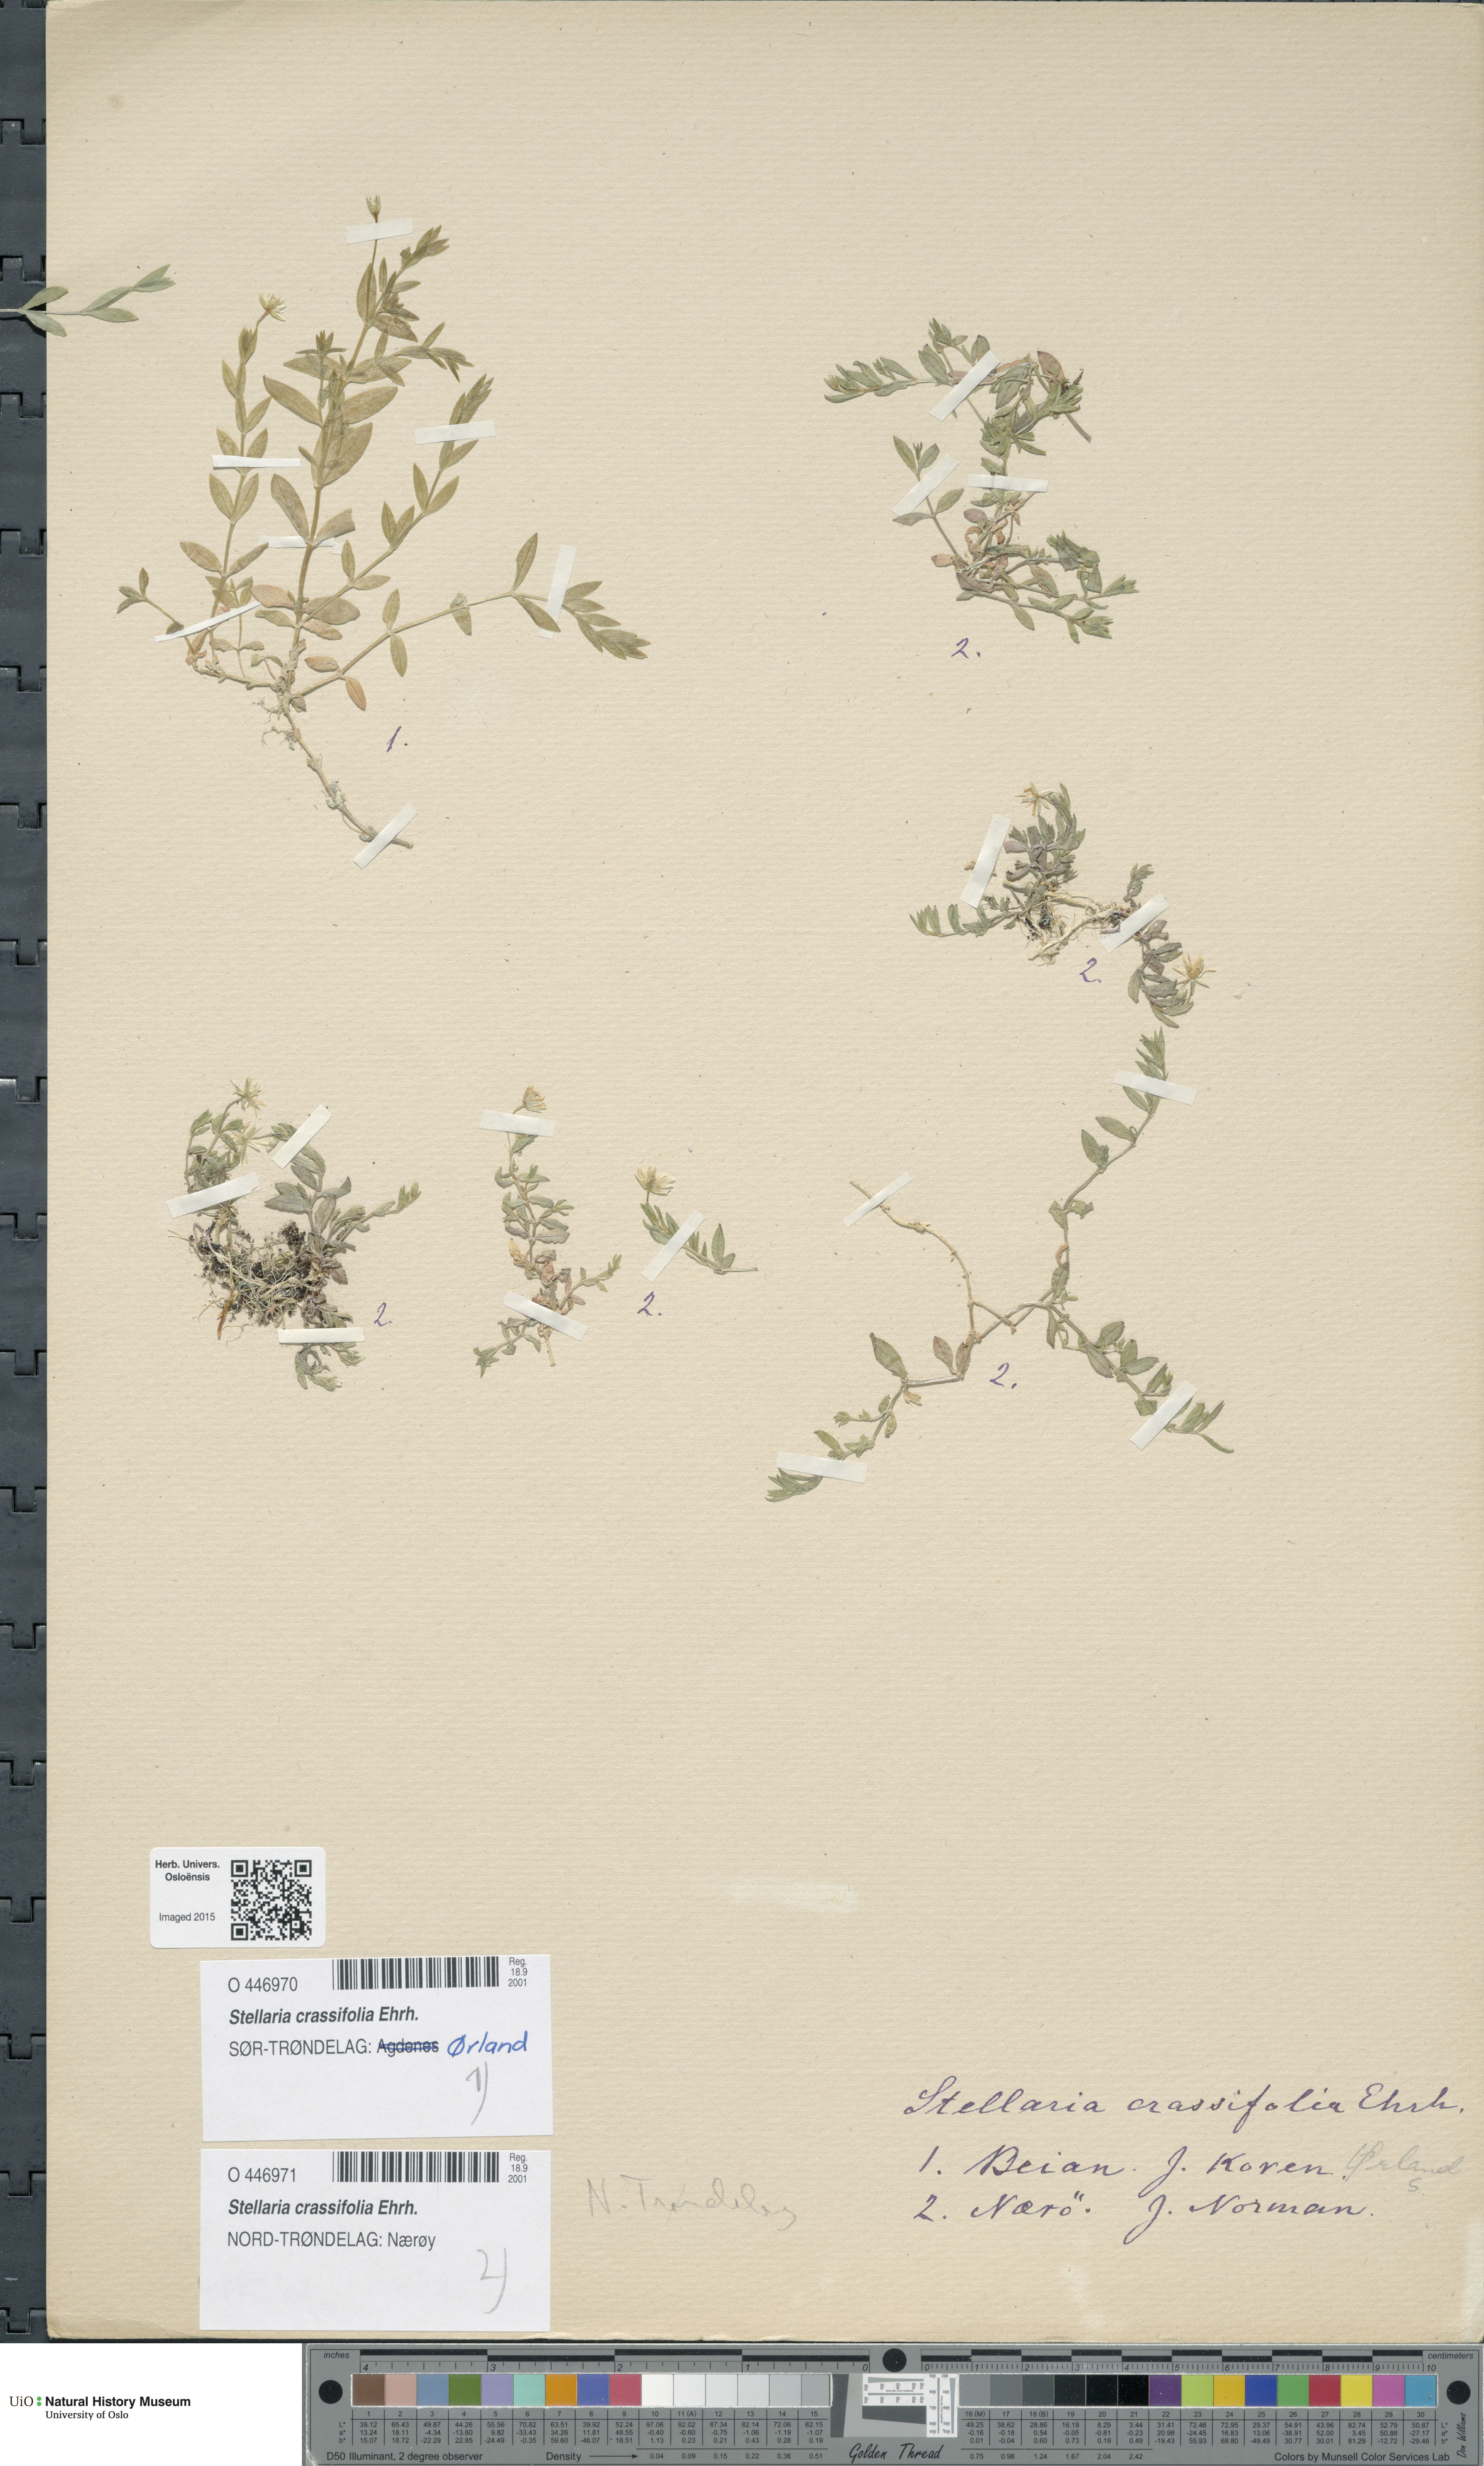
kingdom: Plantae
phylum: Tracheophyta
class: Magnoliopsida
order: Caryophyllales
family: Caryophyllaceae
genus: Stellaria
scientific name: Stellaria crassifolia
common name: Fleshy starwort
